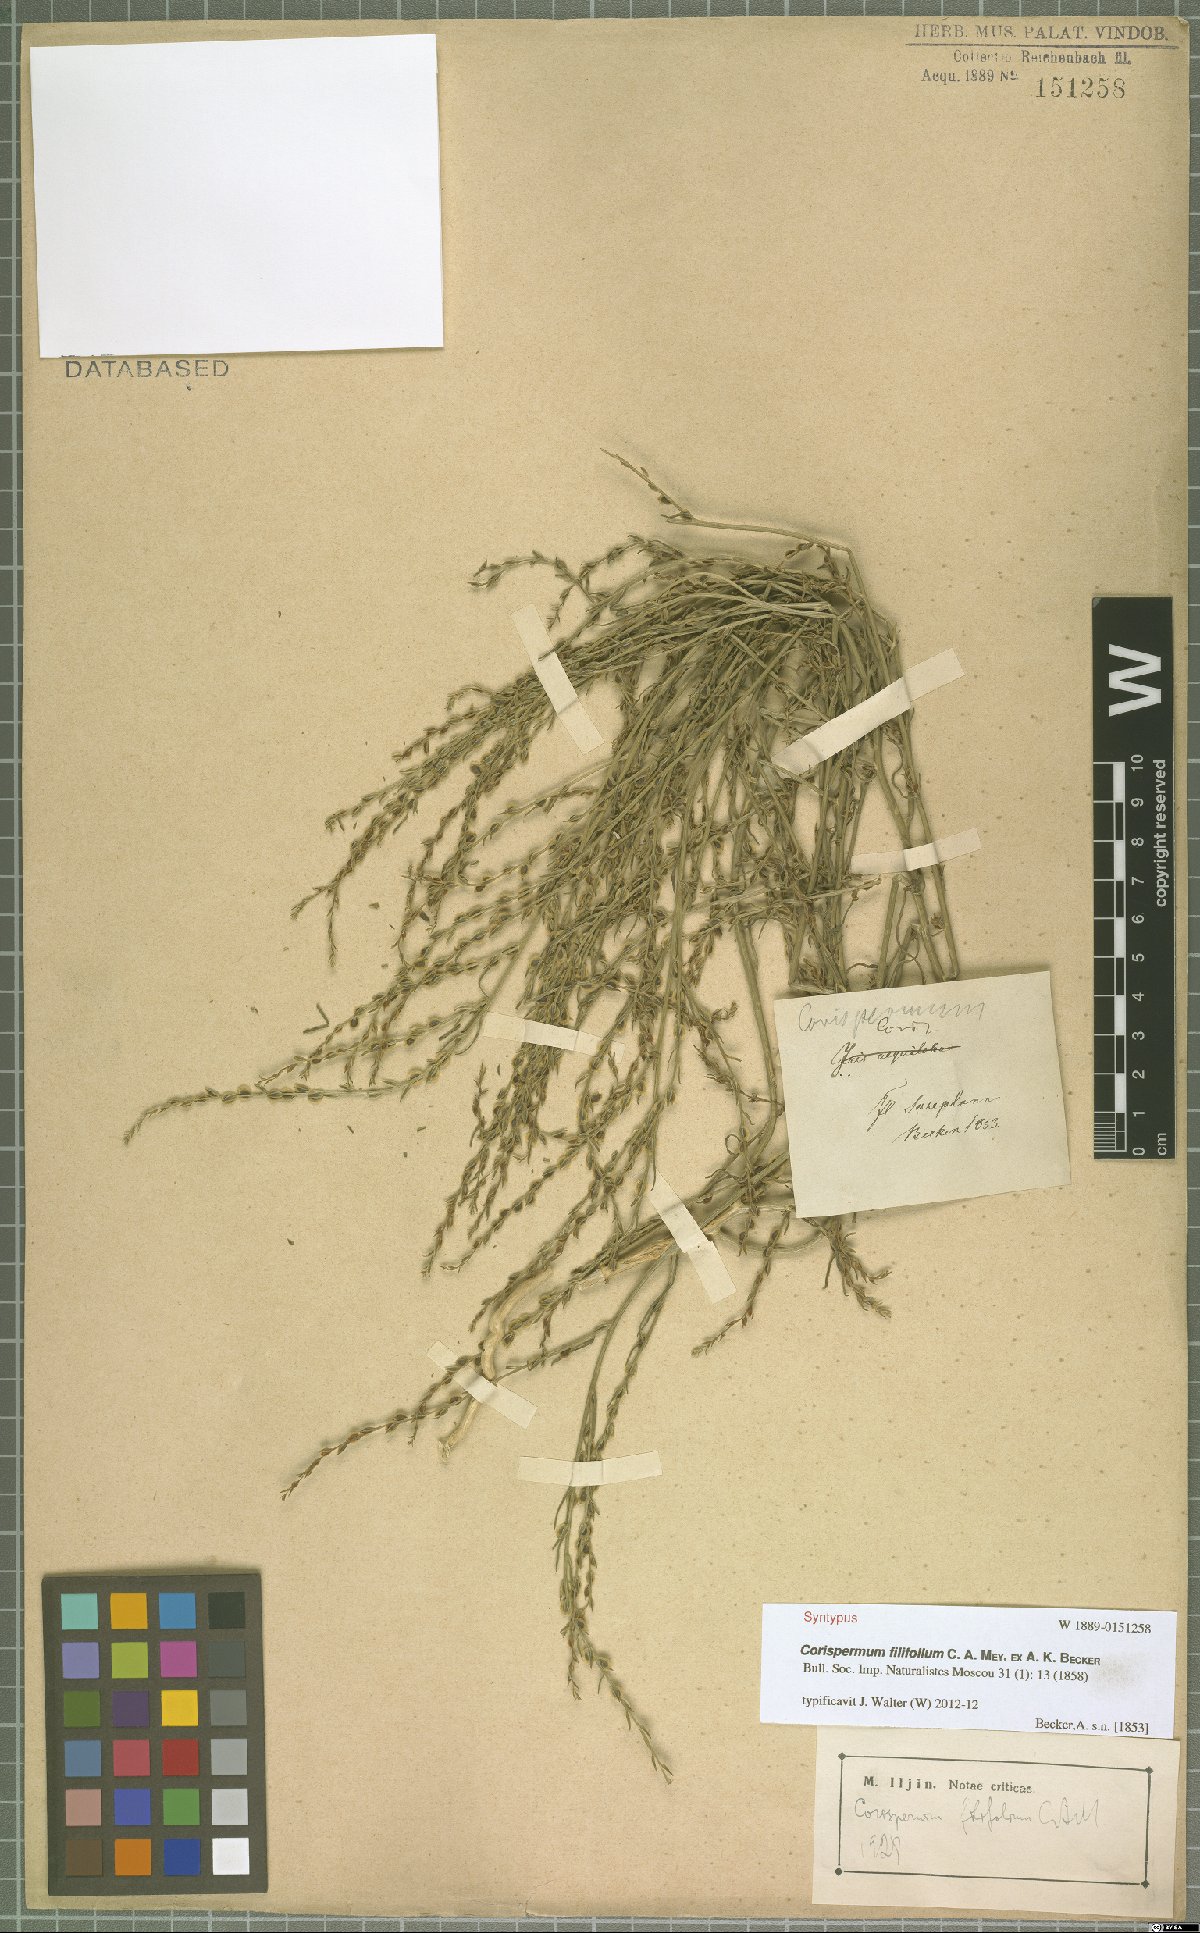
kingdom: Plantae
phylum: Tracheophyta
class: Magnoliopsida
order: Caryophyllales
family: Amaranthaceae
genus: Corispermum
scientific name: Corispermum filifolium
